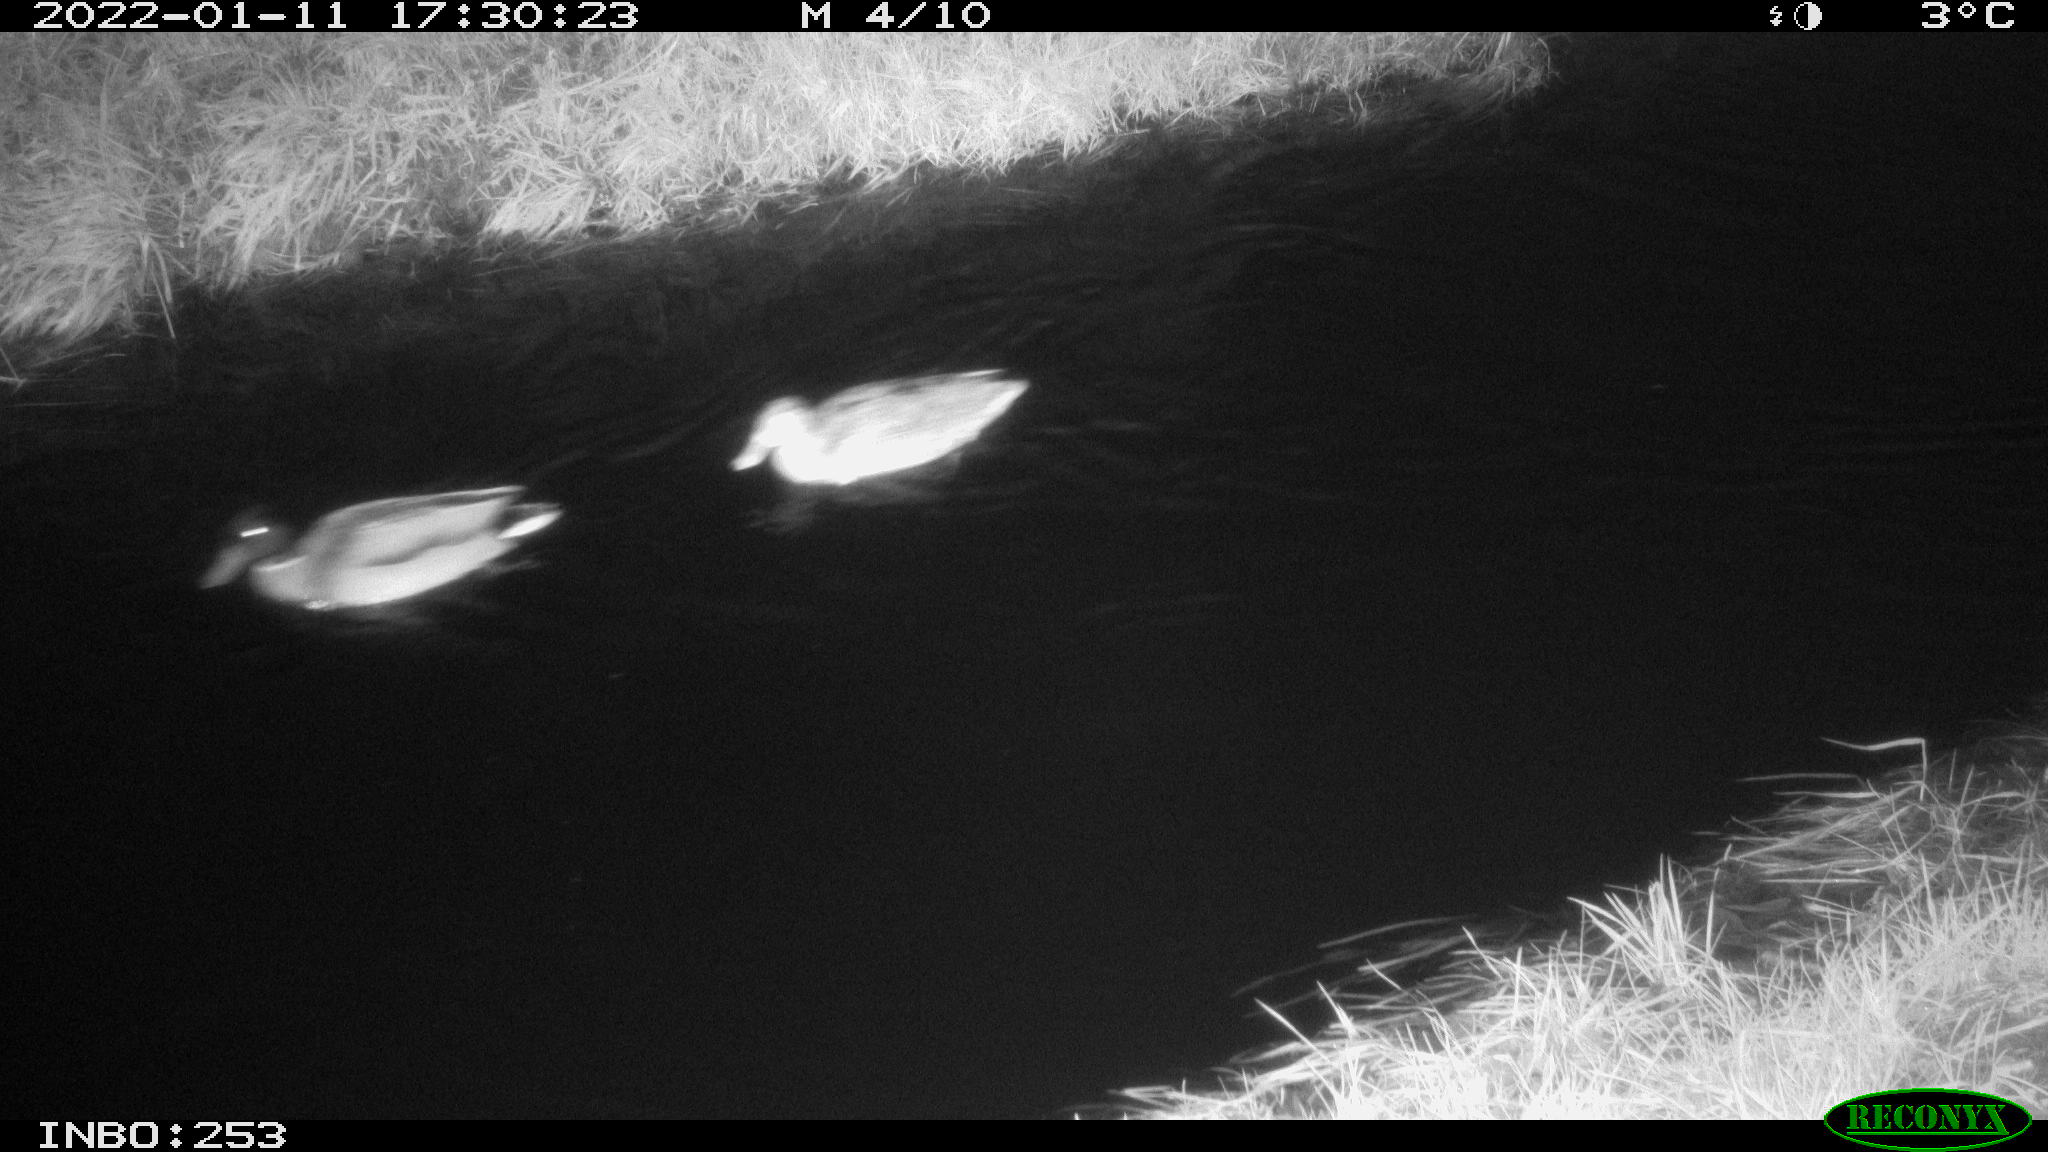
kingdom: Animalia
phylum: Chordata
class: Aves
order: Anseriformes
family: Anatidae
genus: Anas
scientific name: Anas
